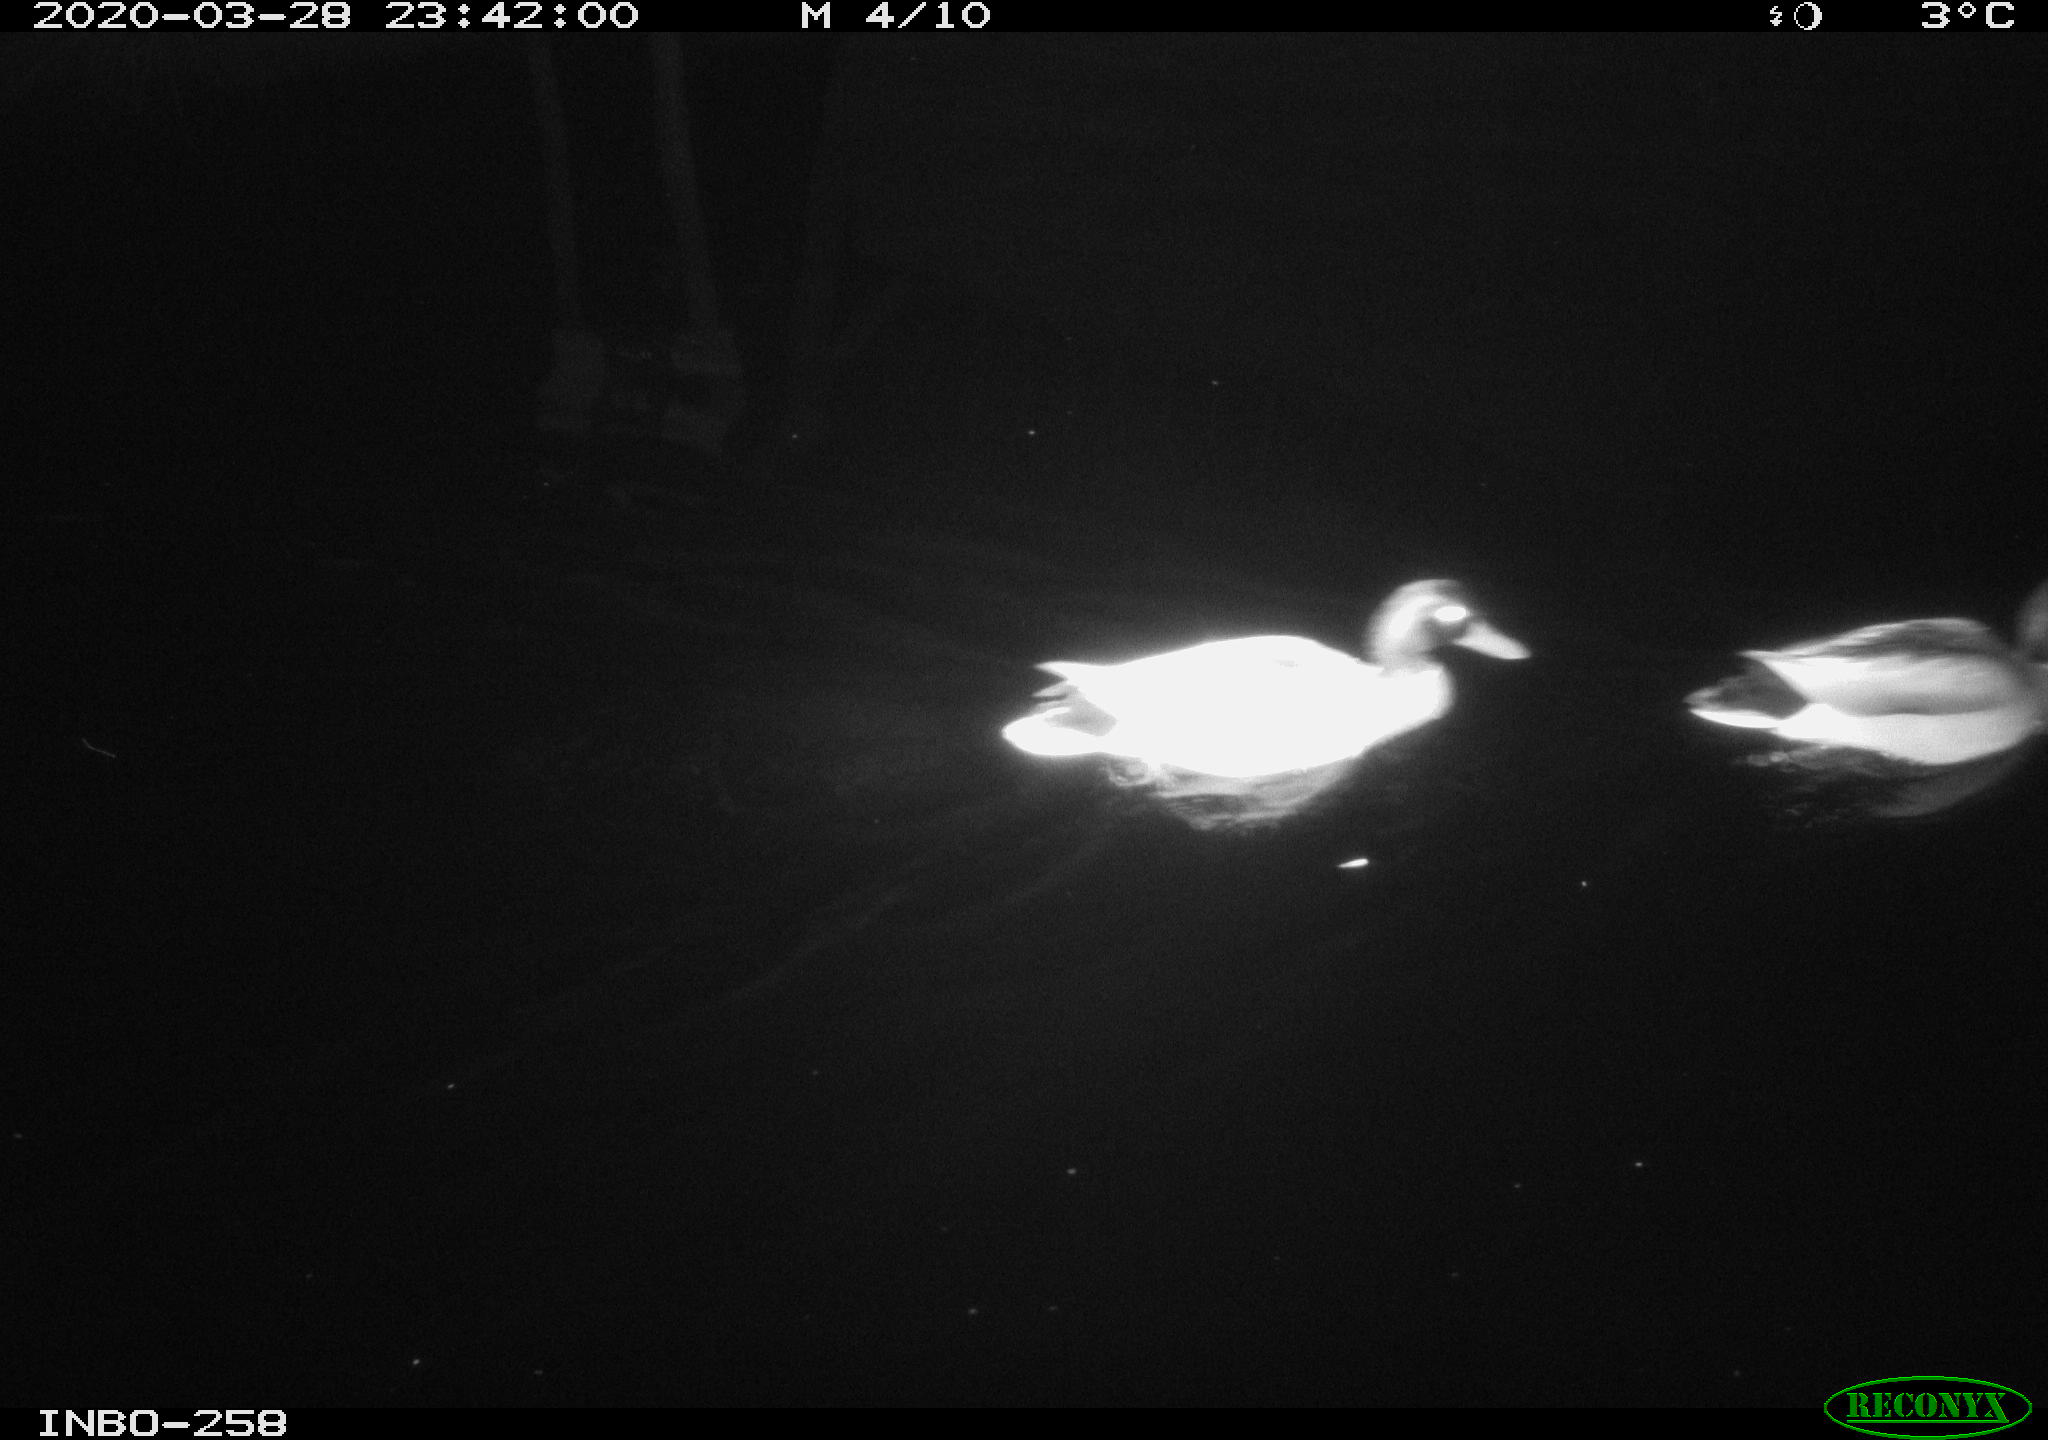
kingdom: Animalia
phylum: Chordata
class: Aves
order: Anseriformes
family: Anatidae
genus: Anas
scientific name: Anas platyrhynchos
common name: Mallard
